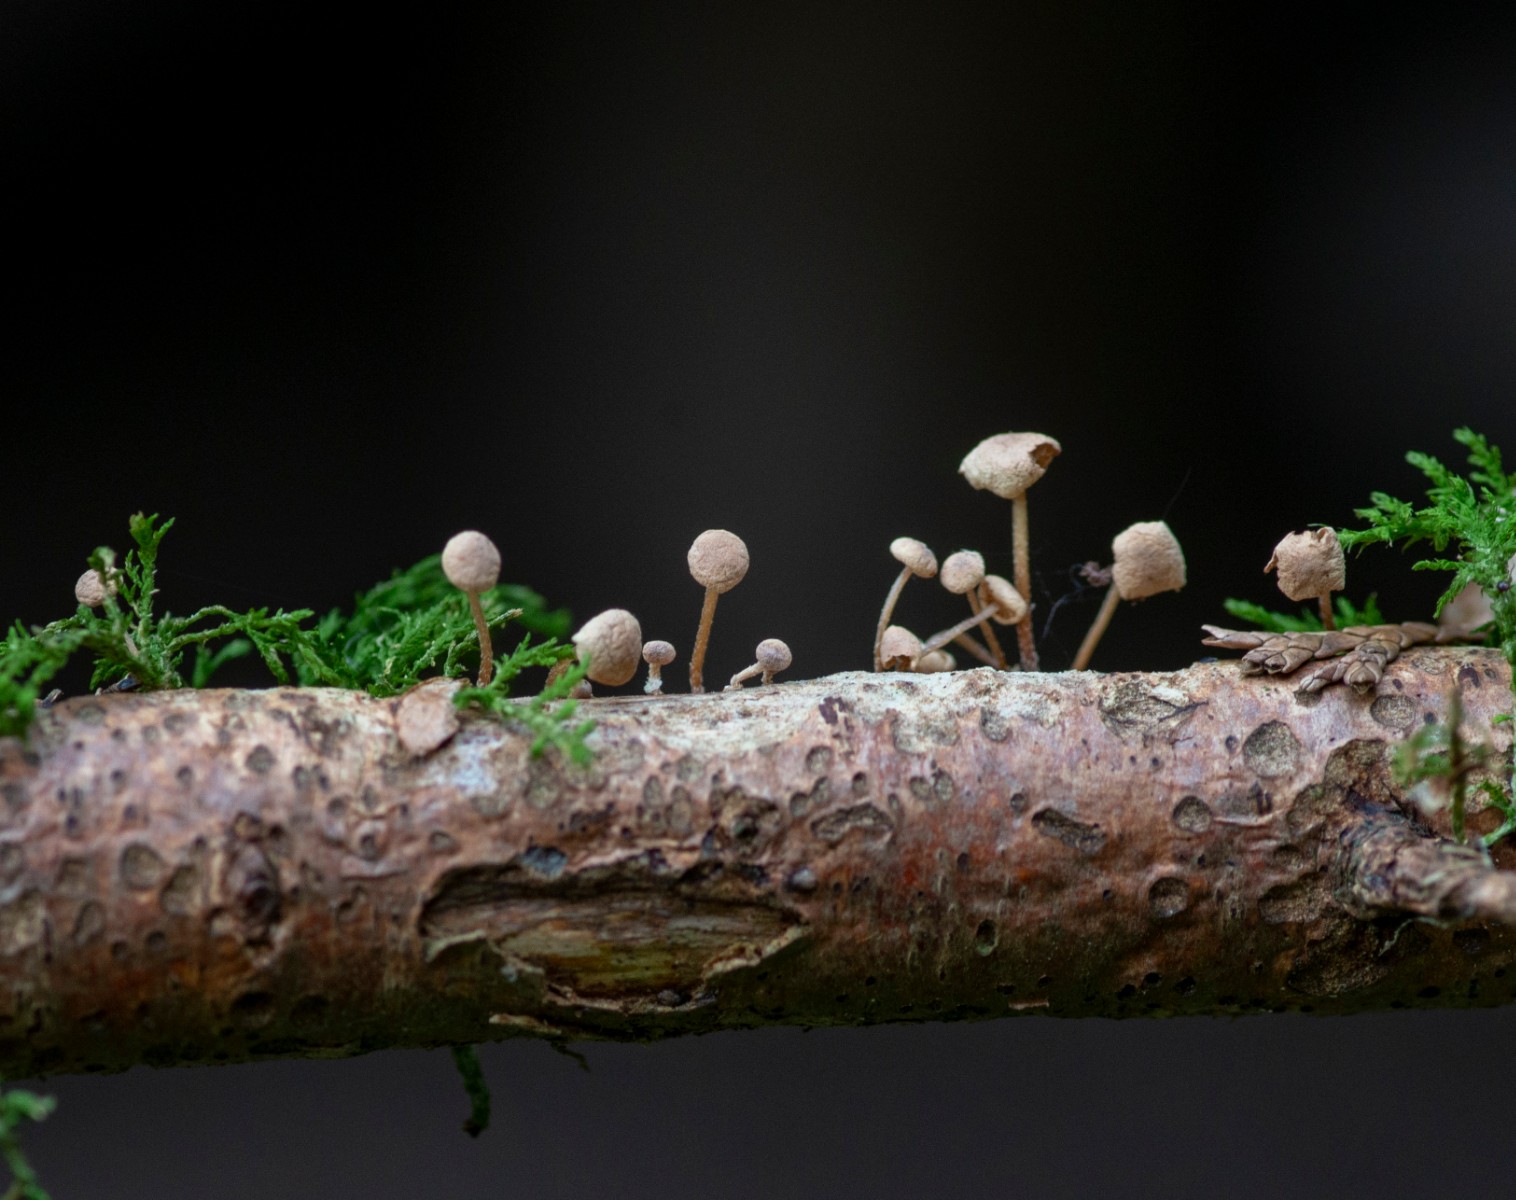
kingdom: Fungi
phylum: Basidiomycota
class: Agaricomycetes
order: Agaricales
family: Omphalotaceae
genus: Collybiopsis
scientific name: Collybiopsis ramealis
